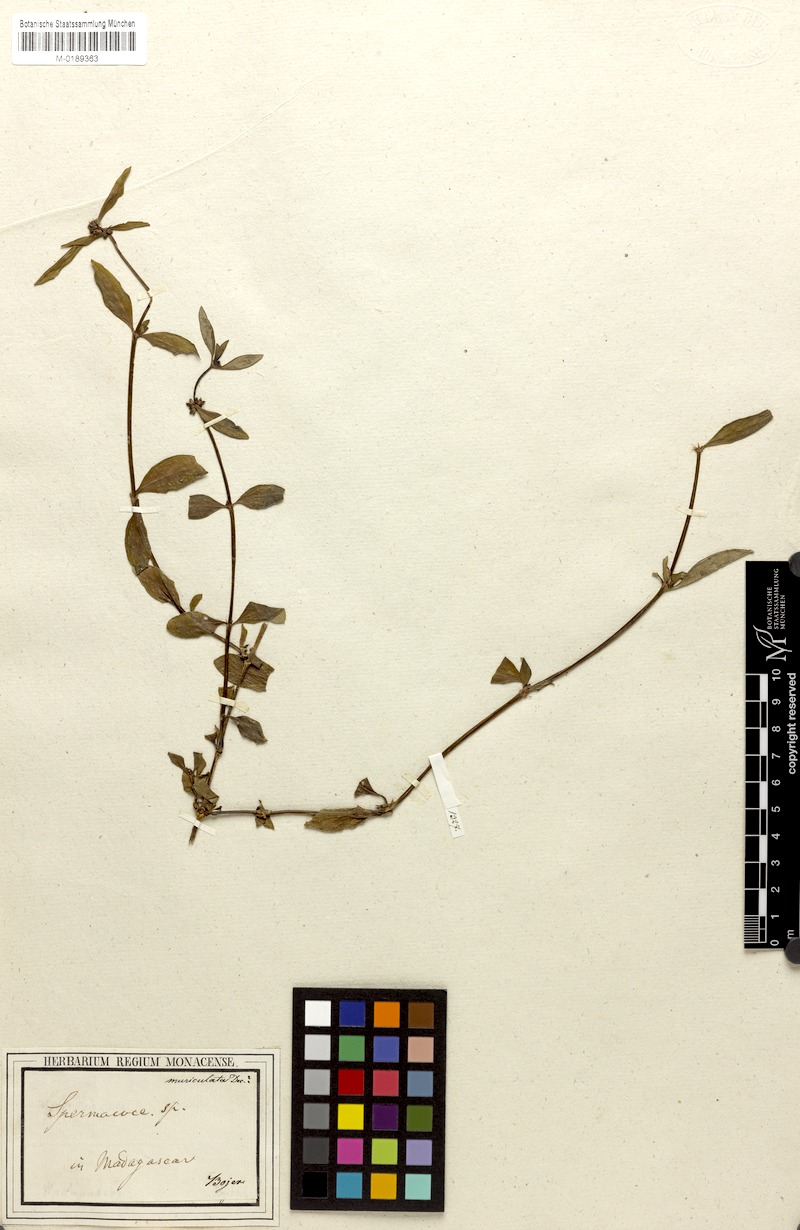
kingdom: Plantae
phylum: Tracheophyta
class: Magnoliopsida
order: Gentianales
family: Rubiaceae
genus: Scleromitrion
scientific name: Scleromitrion tenelliflorum
